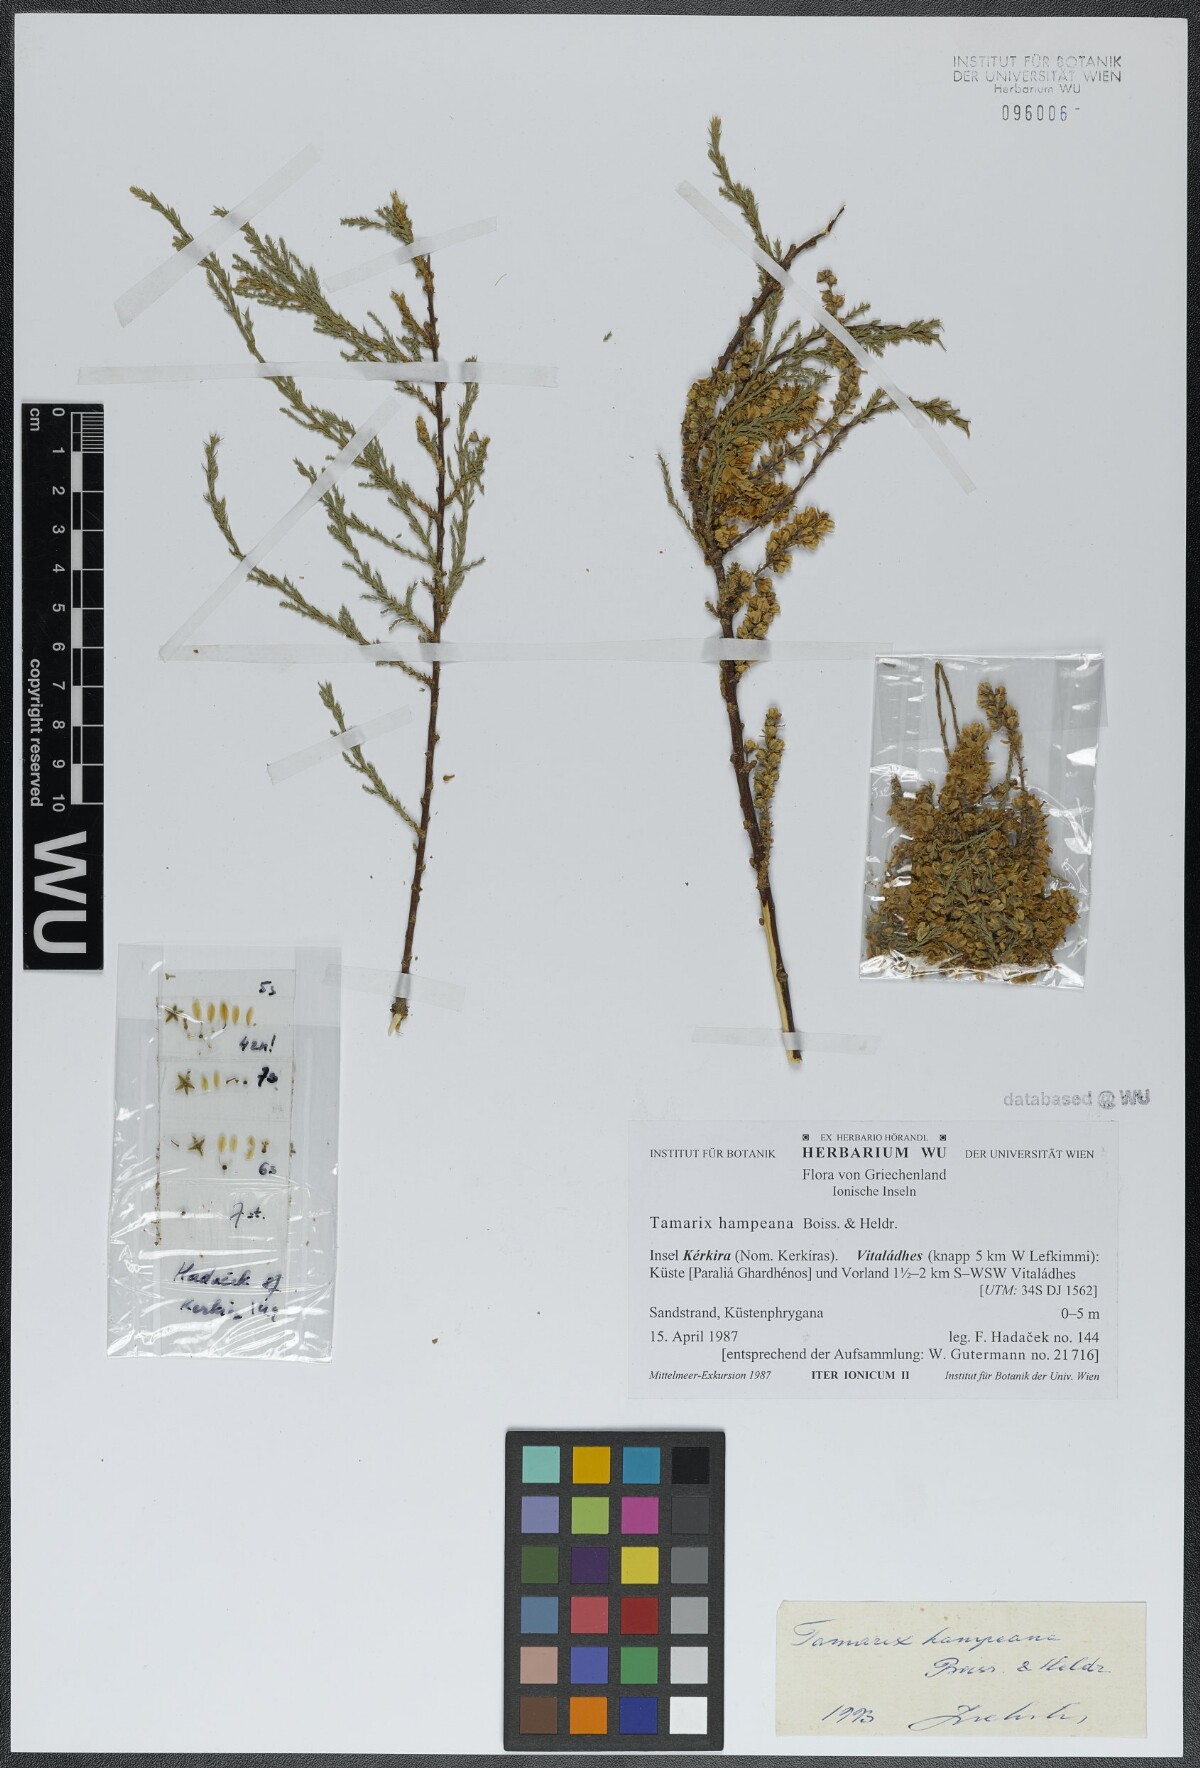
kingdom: Plantae
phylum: Tracheophyta
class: Magnoliopsida
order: Caryophyllales
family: Tamaricaceae
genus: Tamarix
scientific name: Tamarix hampeana
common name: Hampe’s tamarisk
